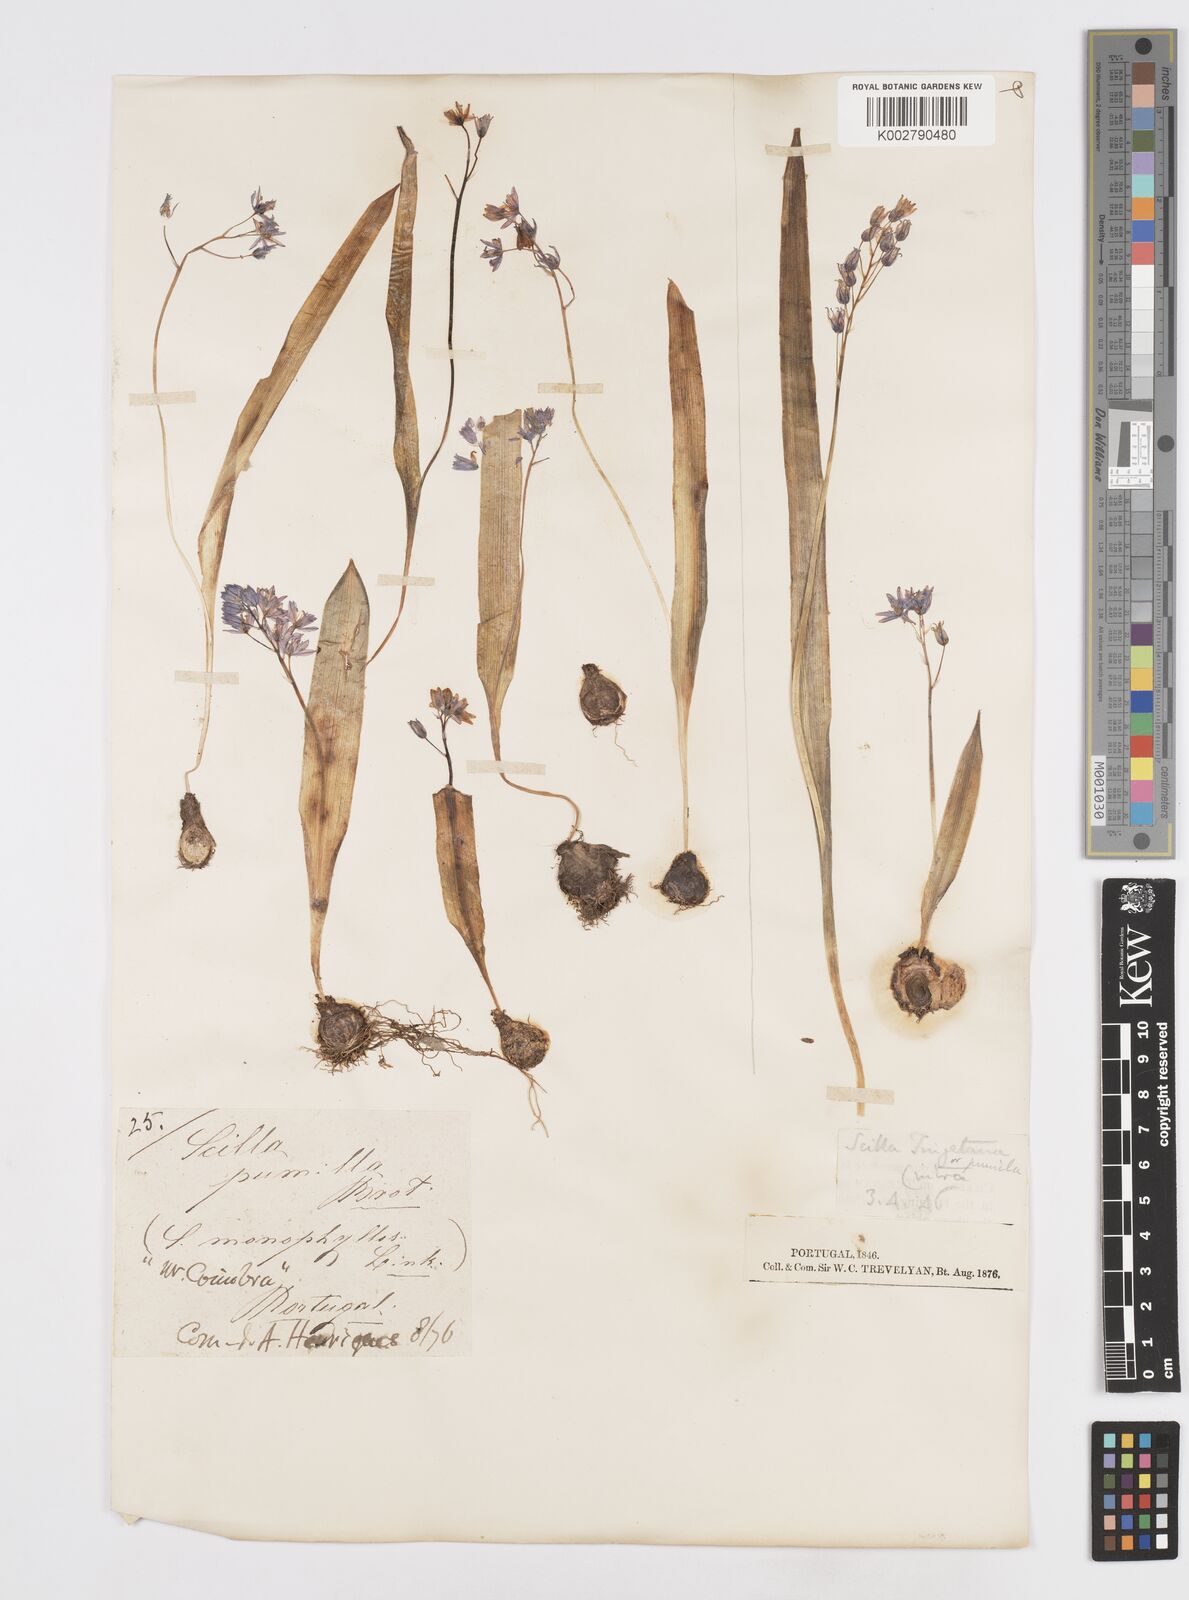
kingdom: Plantae
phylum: Tracheophyta
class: Liliopsida
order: Asparagales
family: Asparagaceae
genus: Scilla
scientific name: Scilla monophyllos
